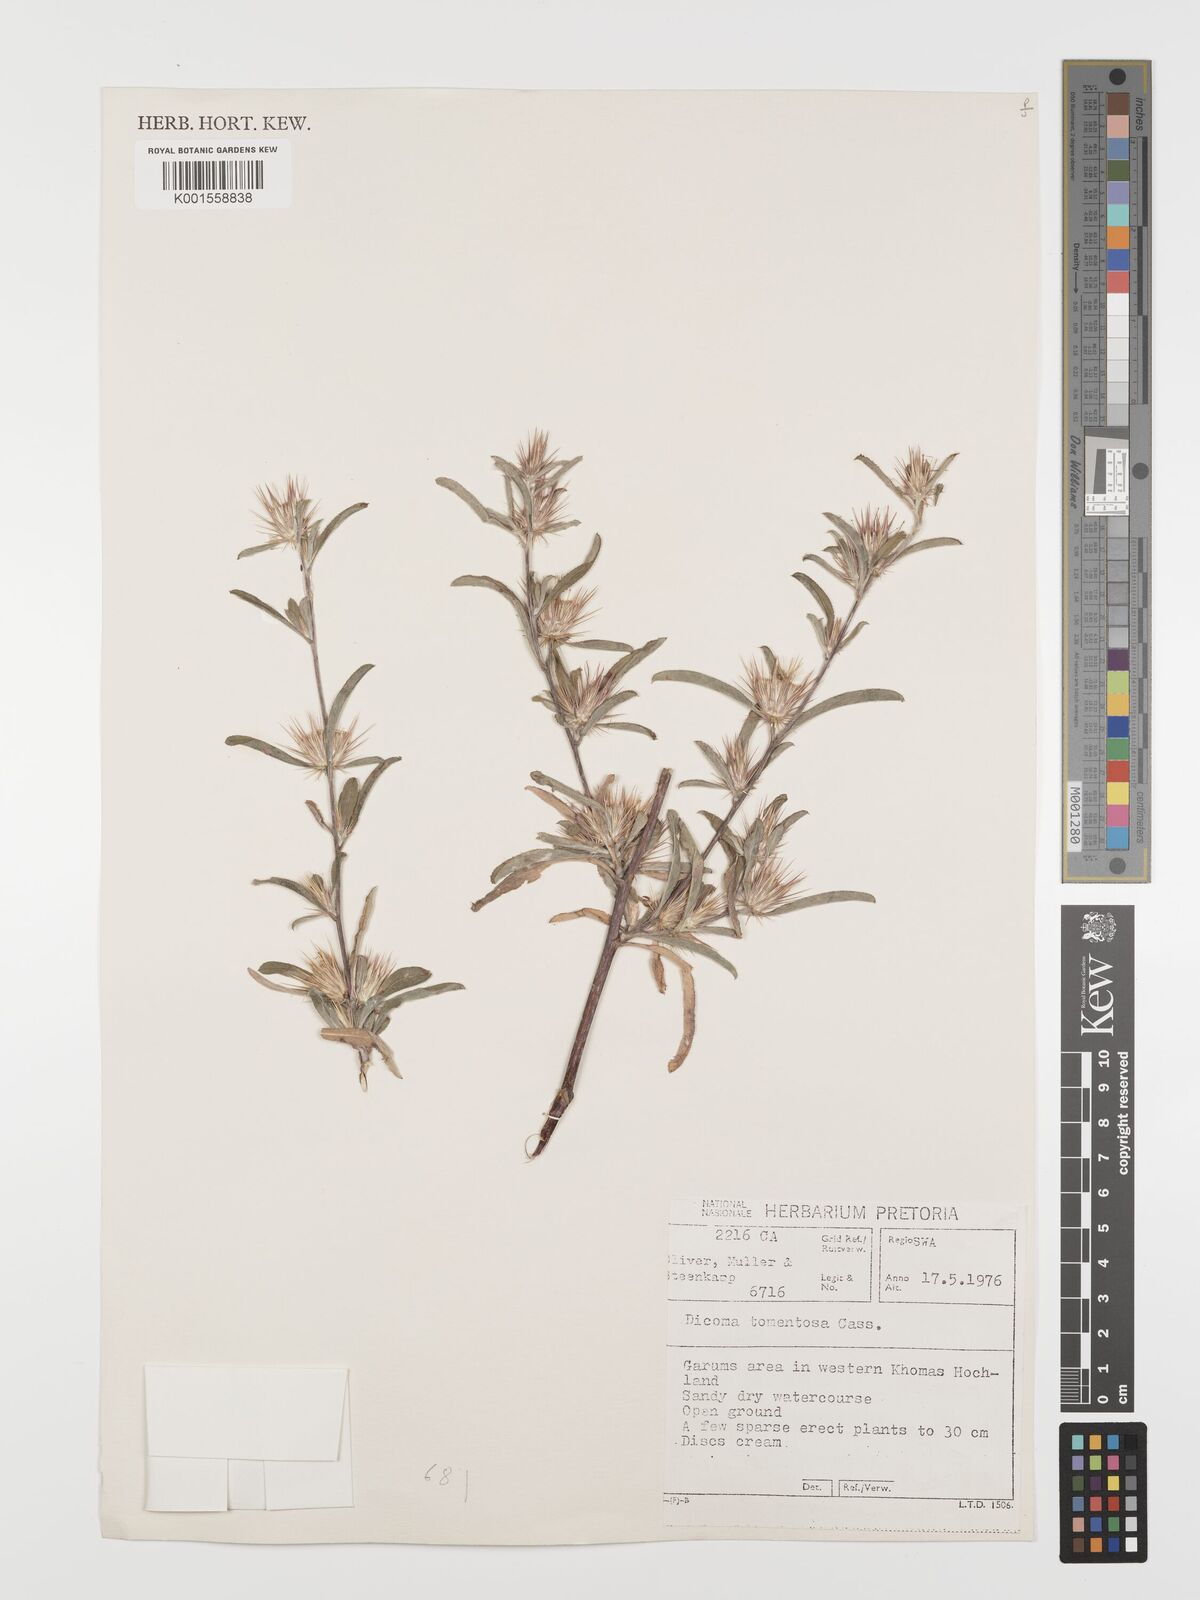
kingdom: Plantae
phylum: Tracheophyta
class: Magnoliopsida
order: Asterales
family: Asteraceae
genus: Dicoma
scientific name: Dicoma tomentosa
